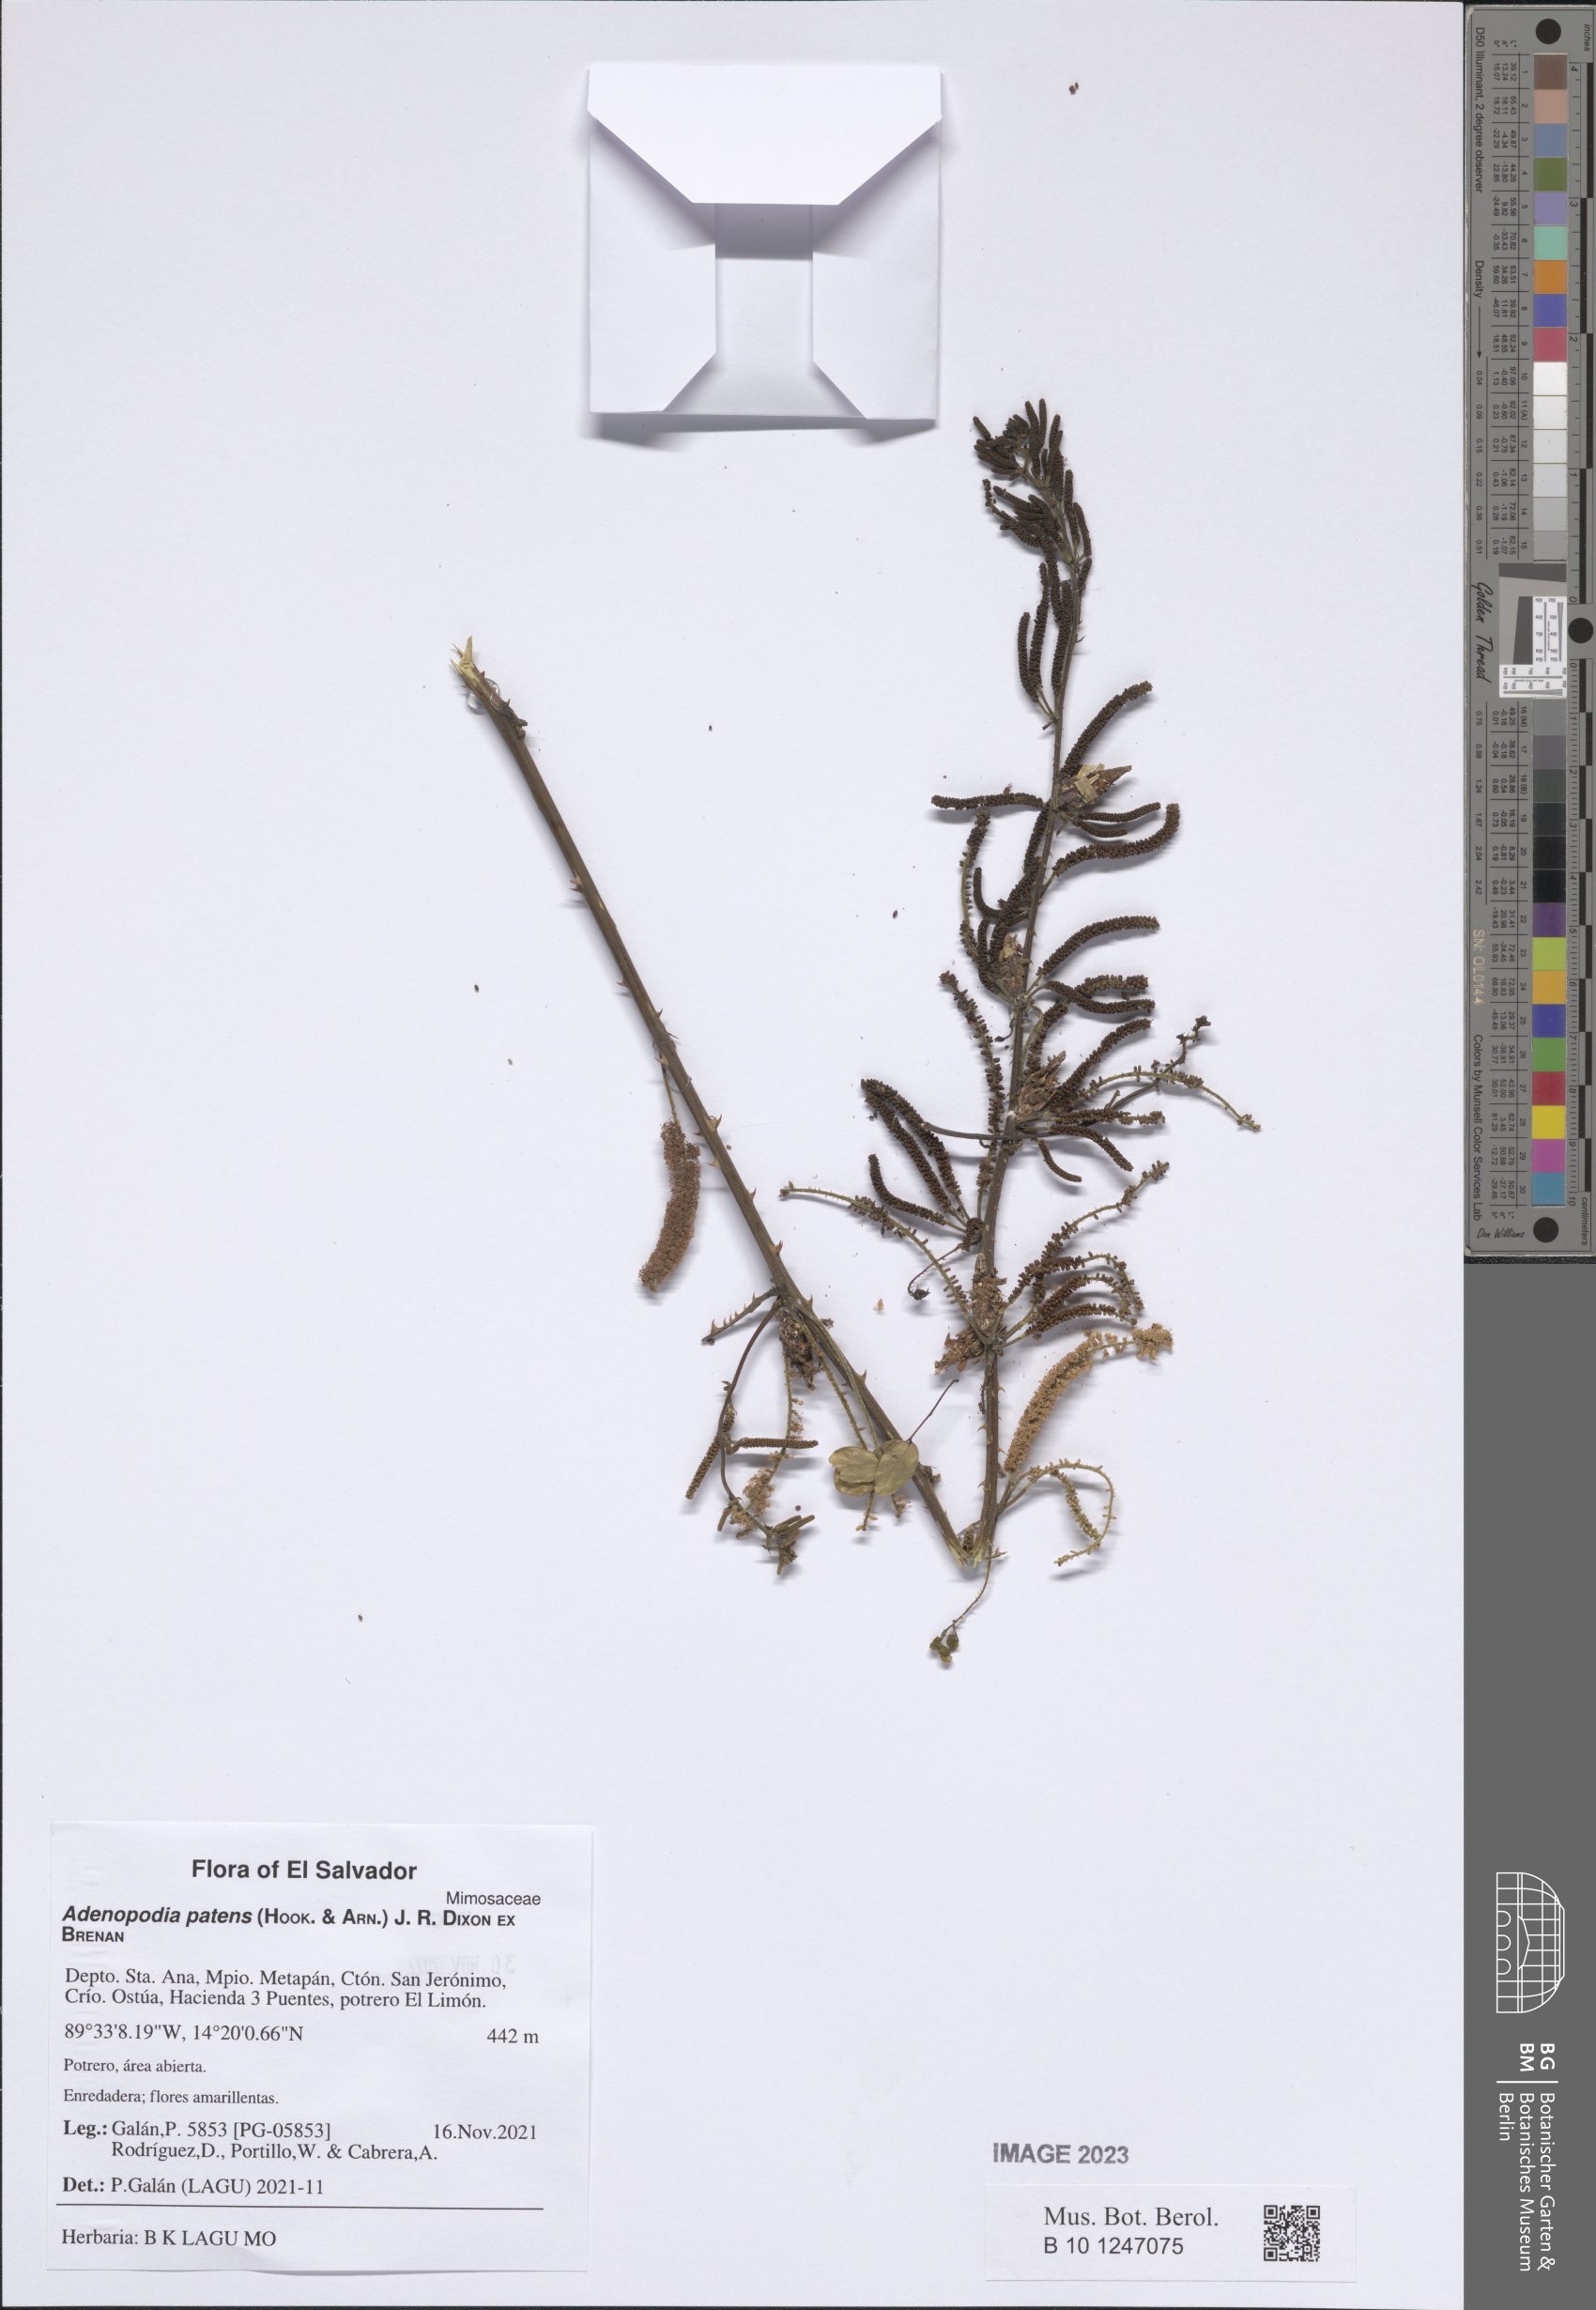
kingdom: Plantae
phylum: Tracheophyta
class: Magnoliopsida
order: Fabales
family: Fabaceae
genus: Adenopodia
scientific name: Adenopodia patens
